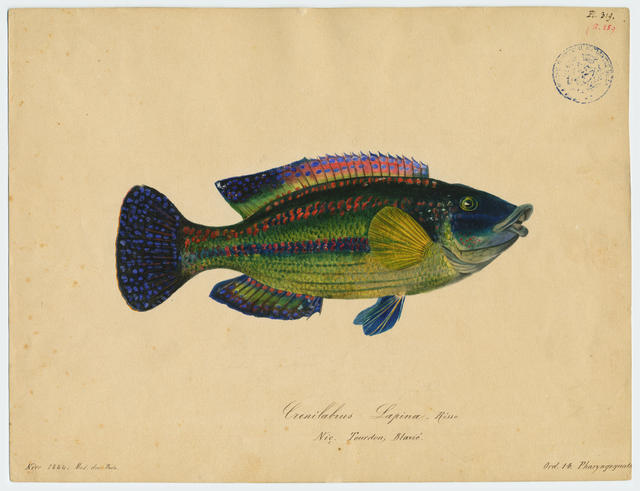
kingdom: Animalia
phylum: Chordata
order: Perciformes
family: Labridae
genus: Symphodus
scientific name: Symphodus tinca
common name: Peacock wrasse
